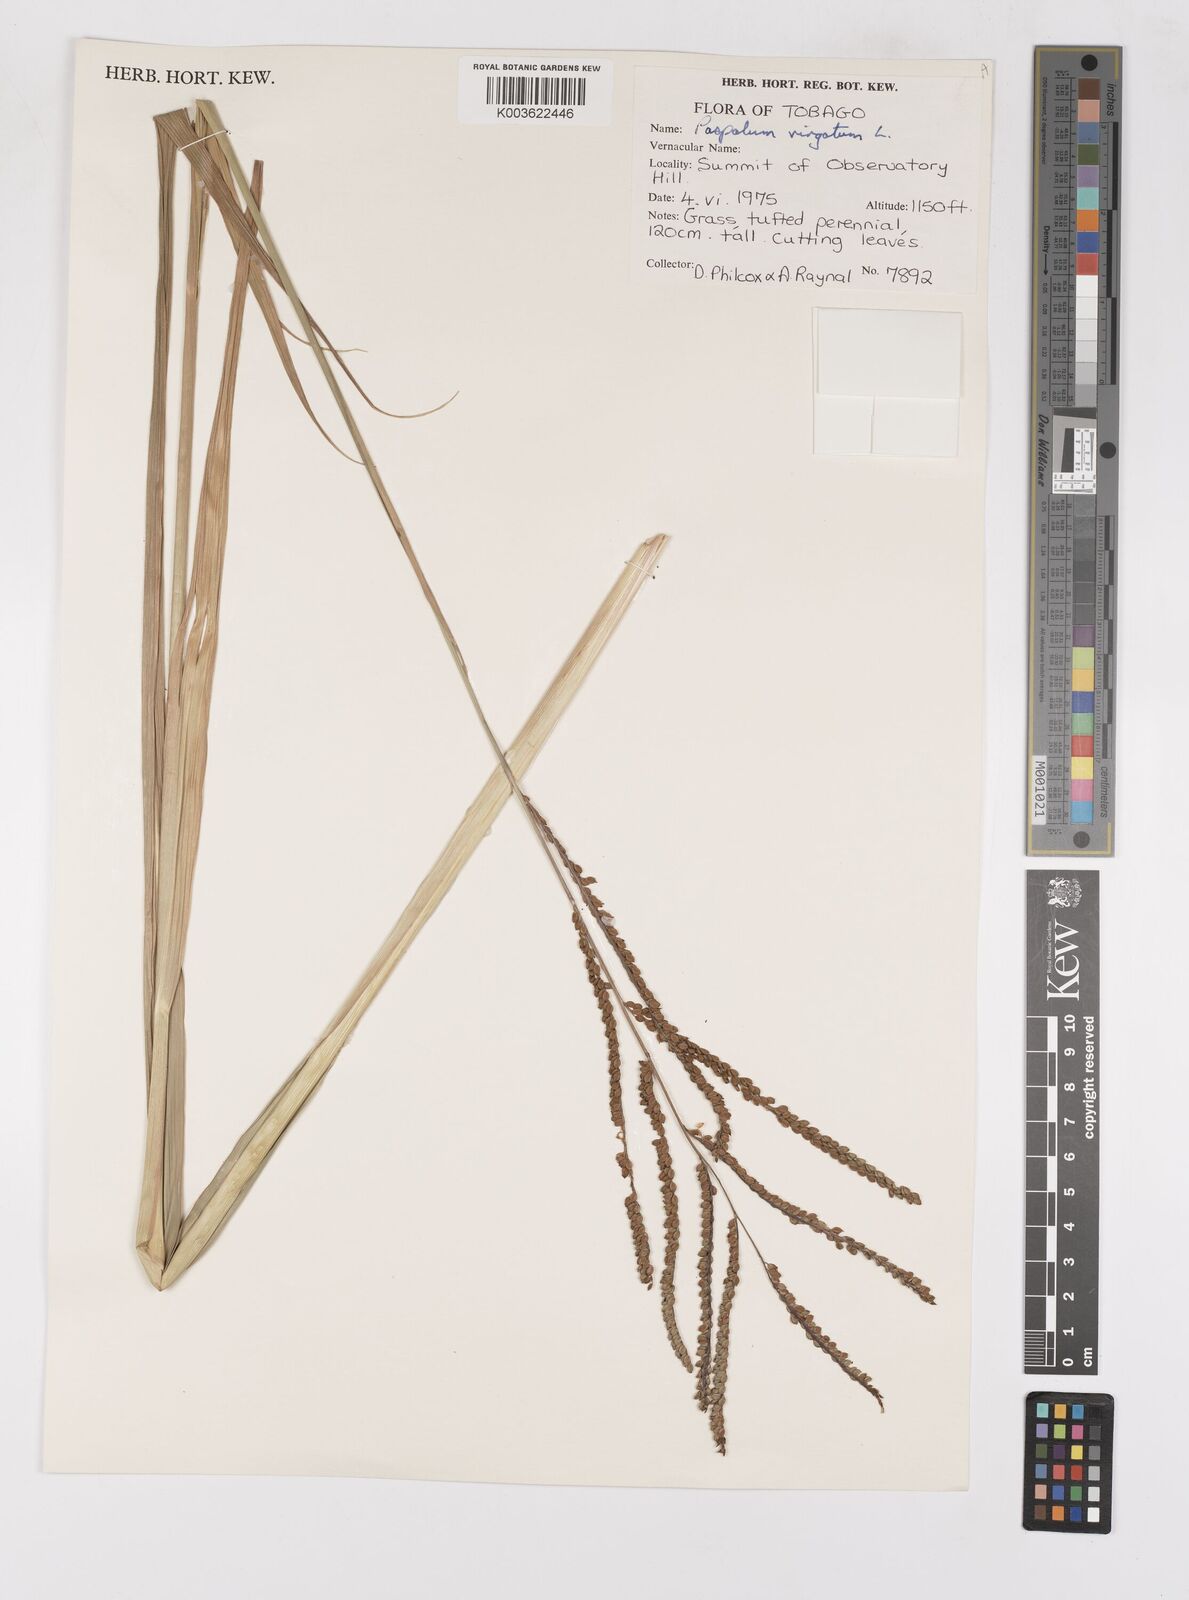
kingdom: Plantae
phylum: Tracheophyta
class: Liliopsida
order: Poales
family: Poaceae
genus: Paspalum
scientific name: Paspalum virgatum
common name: Talquezal
